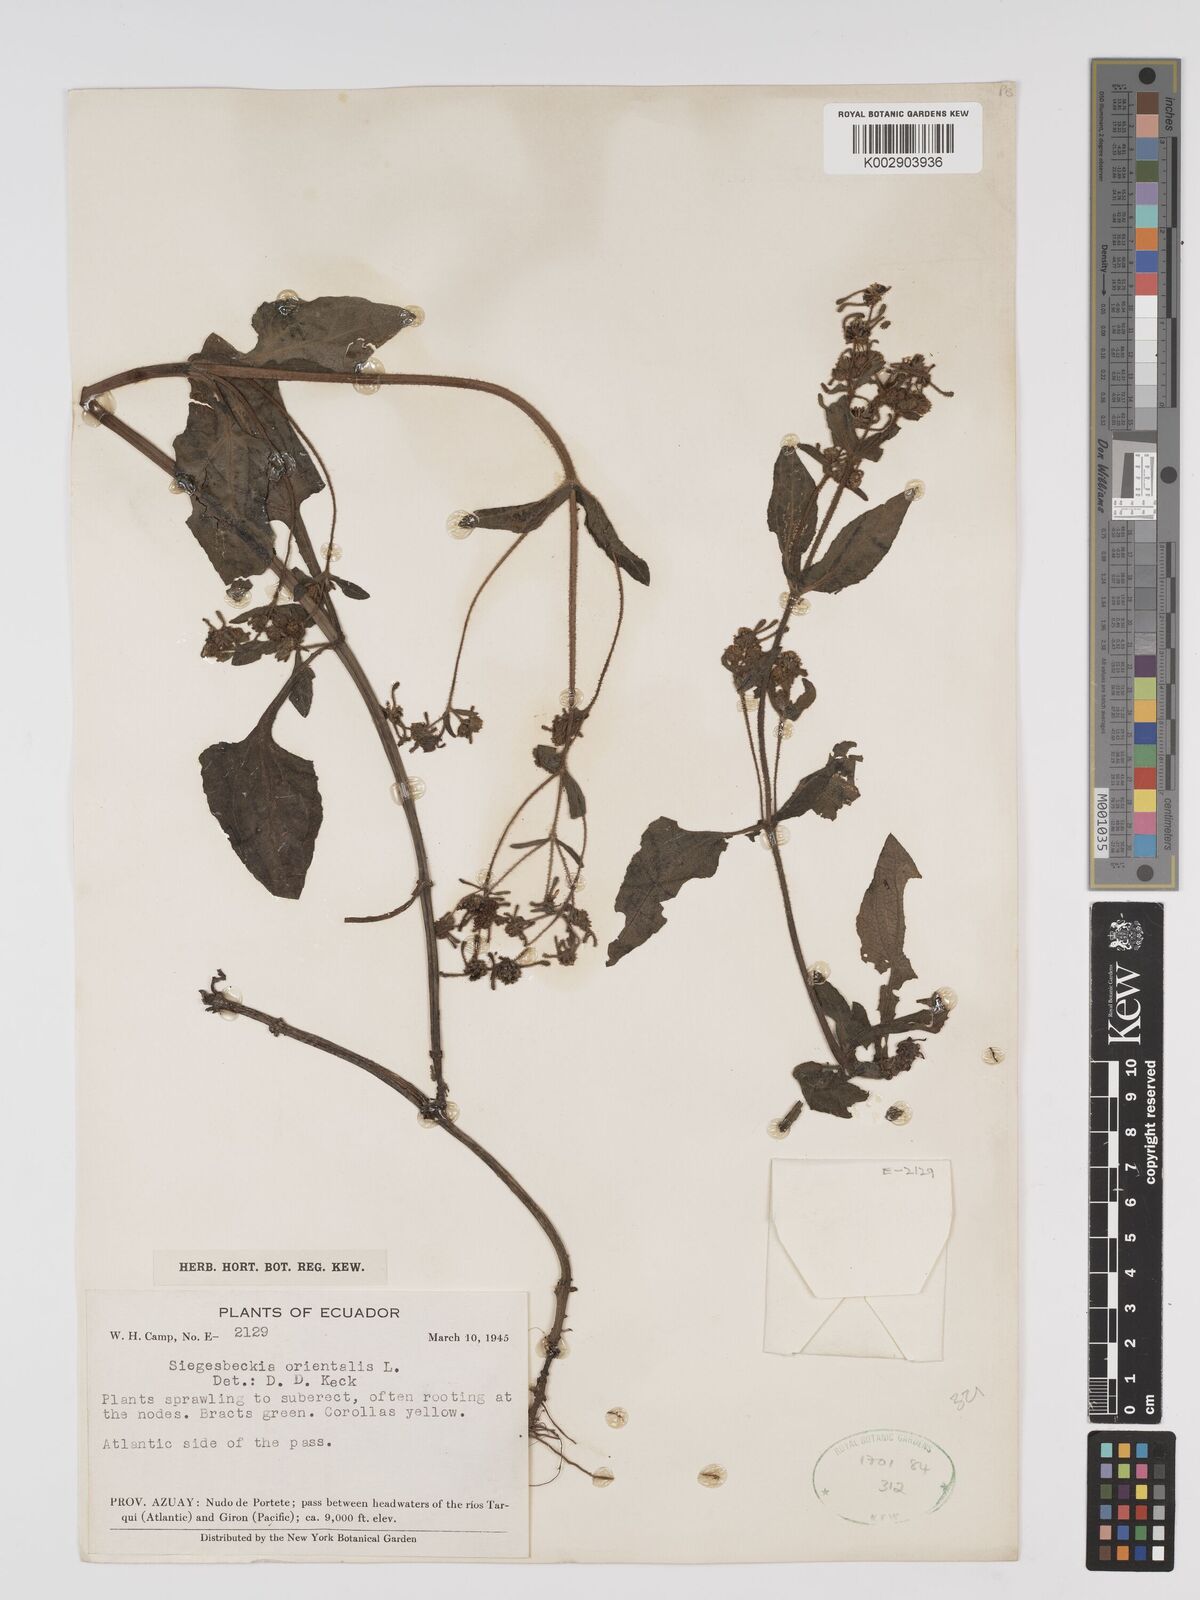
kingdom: Plantae
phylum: Tracheophyta
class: Magnoliopsida
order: Asterales
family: Asteraceae
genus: Sigesbeckia
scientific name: Sigesbeckia orientalis
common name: Eastern st paul's-wort
